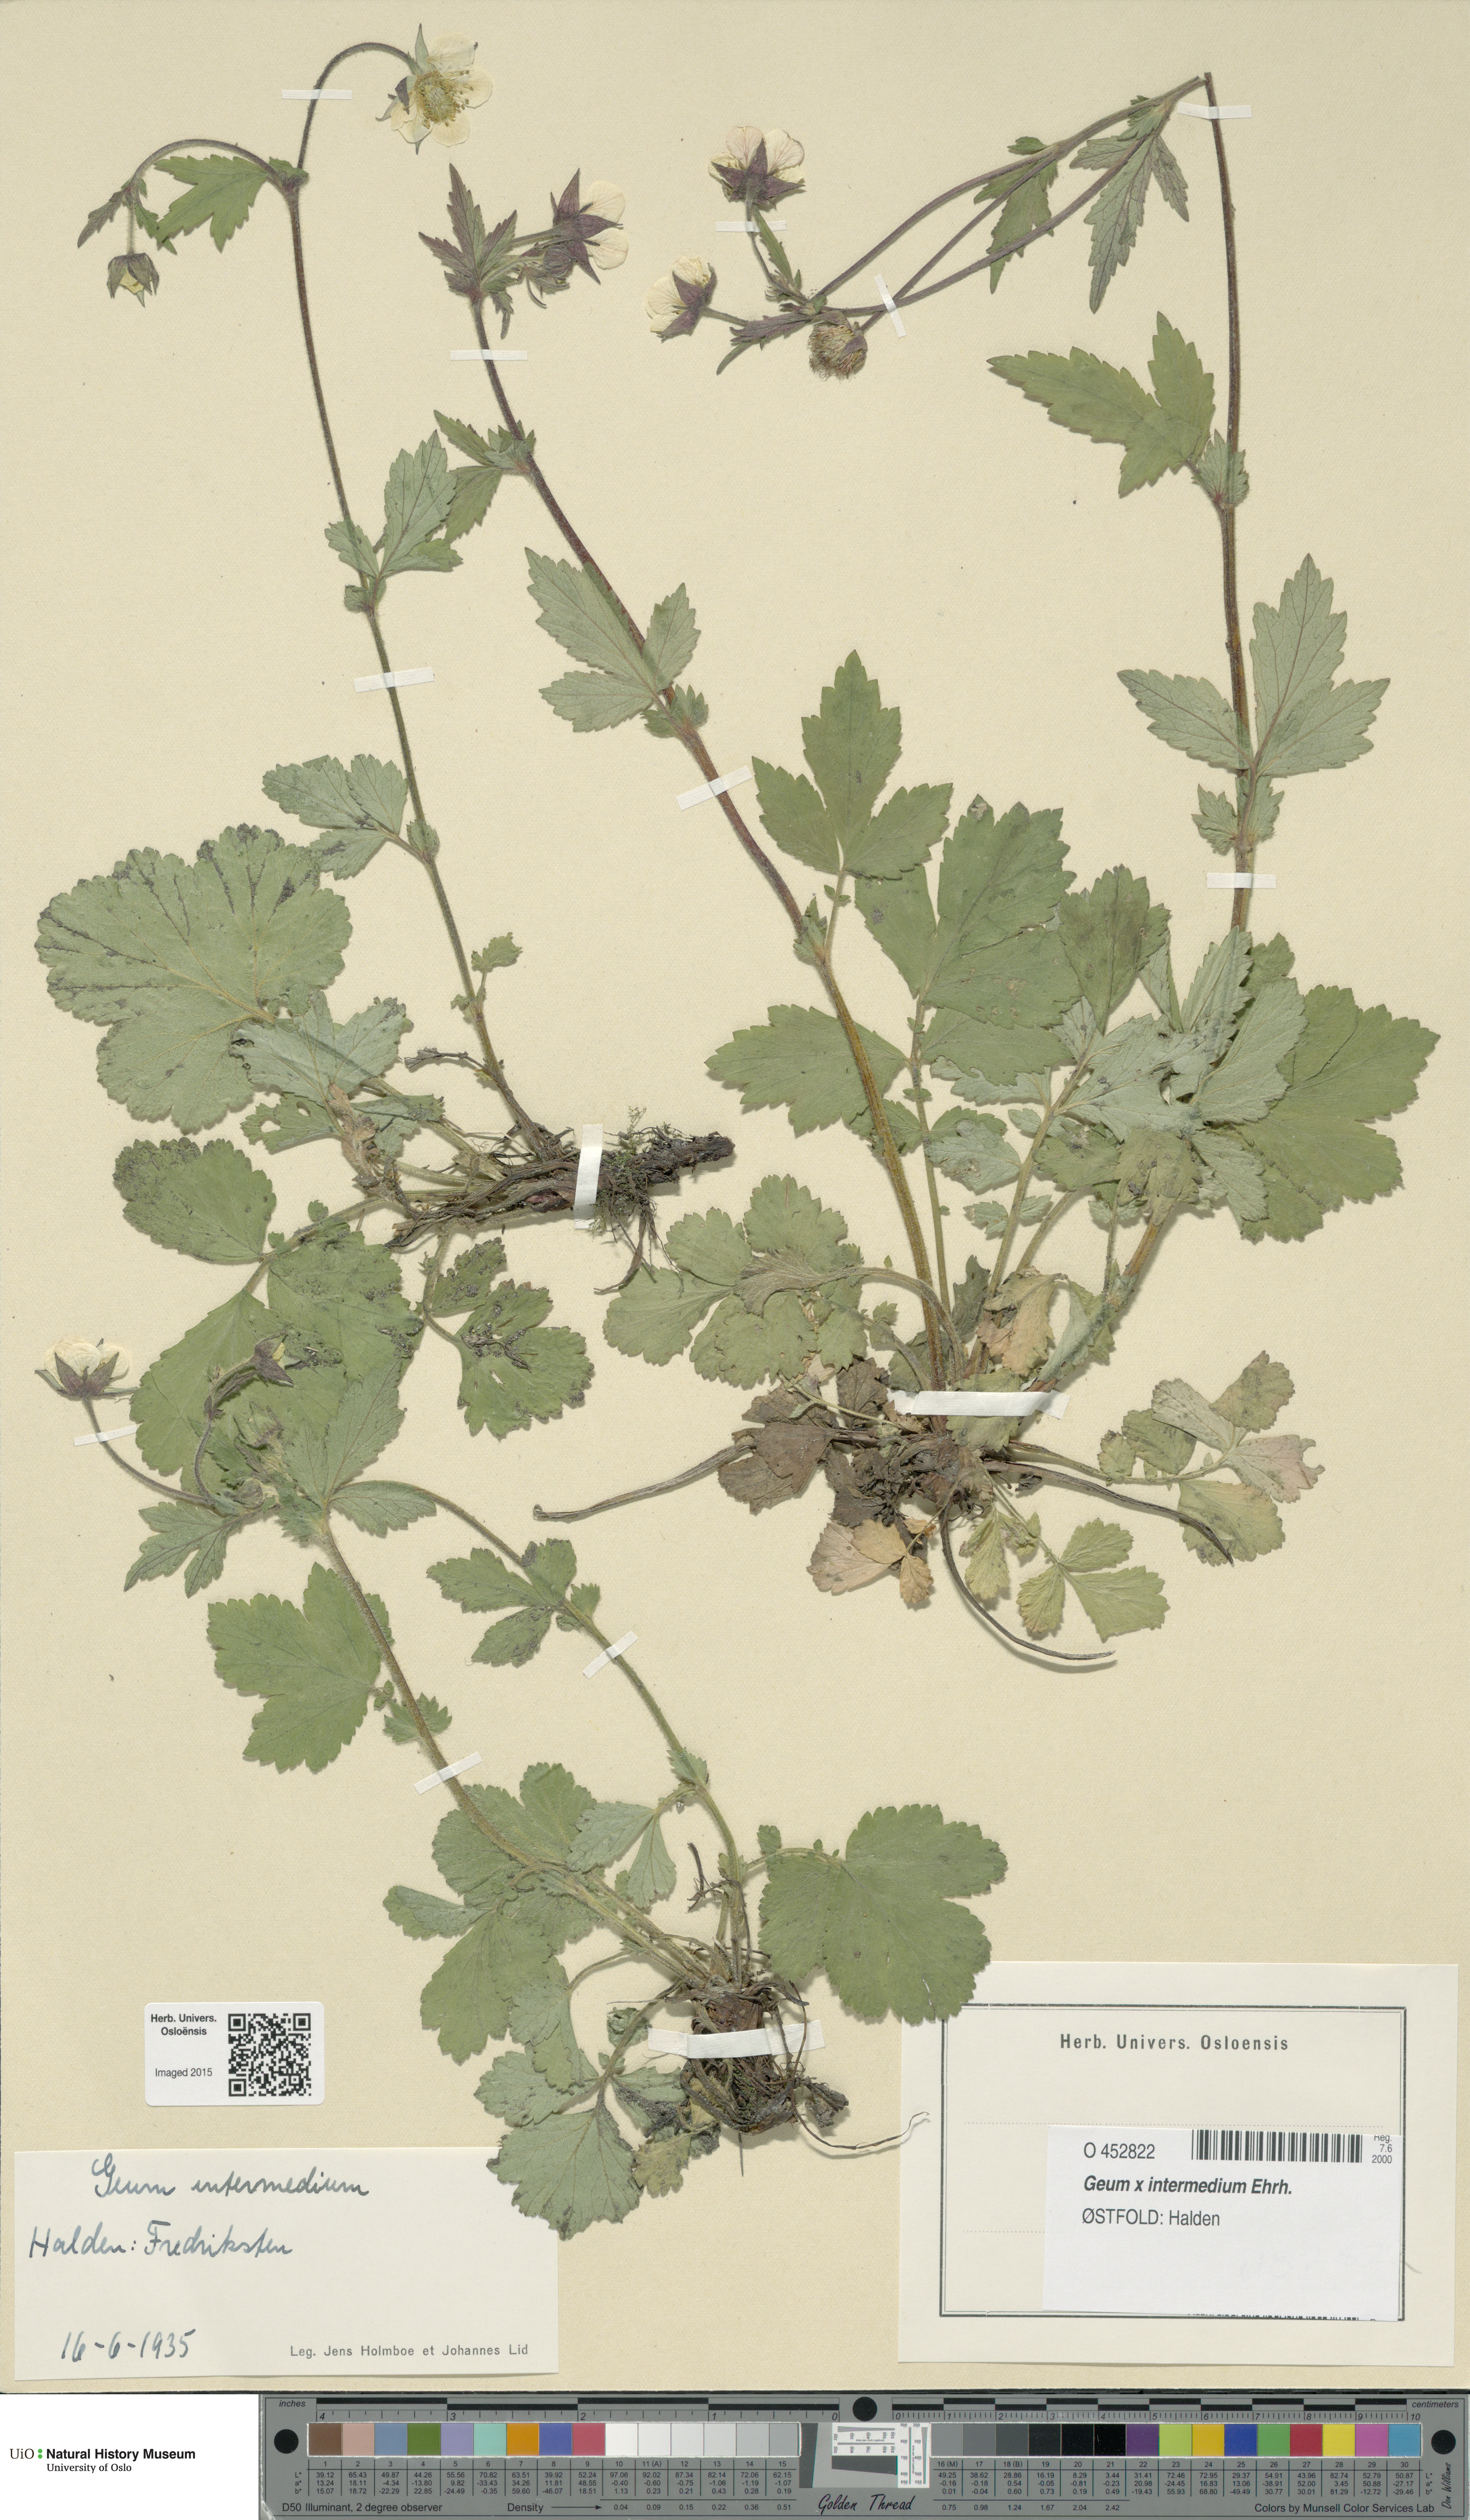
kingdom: Plantae
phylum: Tracheophyta
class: Magnoliopsida
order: Rosales
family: Rosaceae
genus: Geum
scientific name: Geum intermedium
